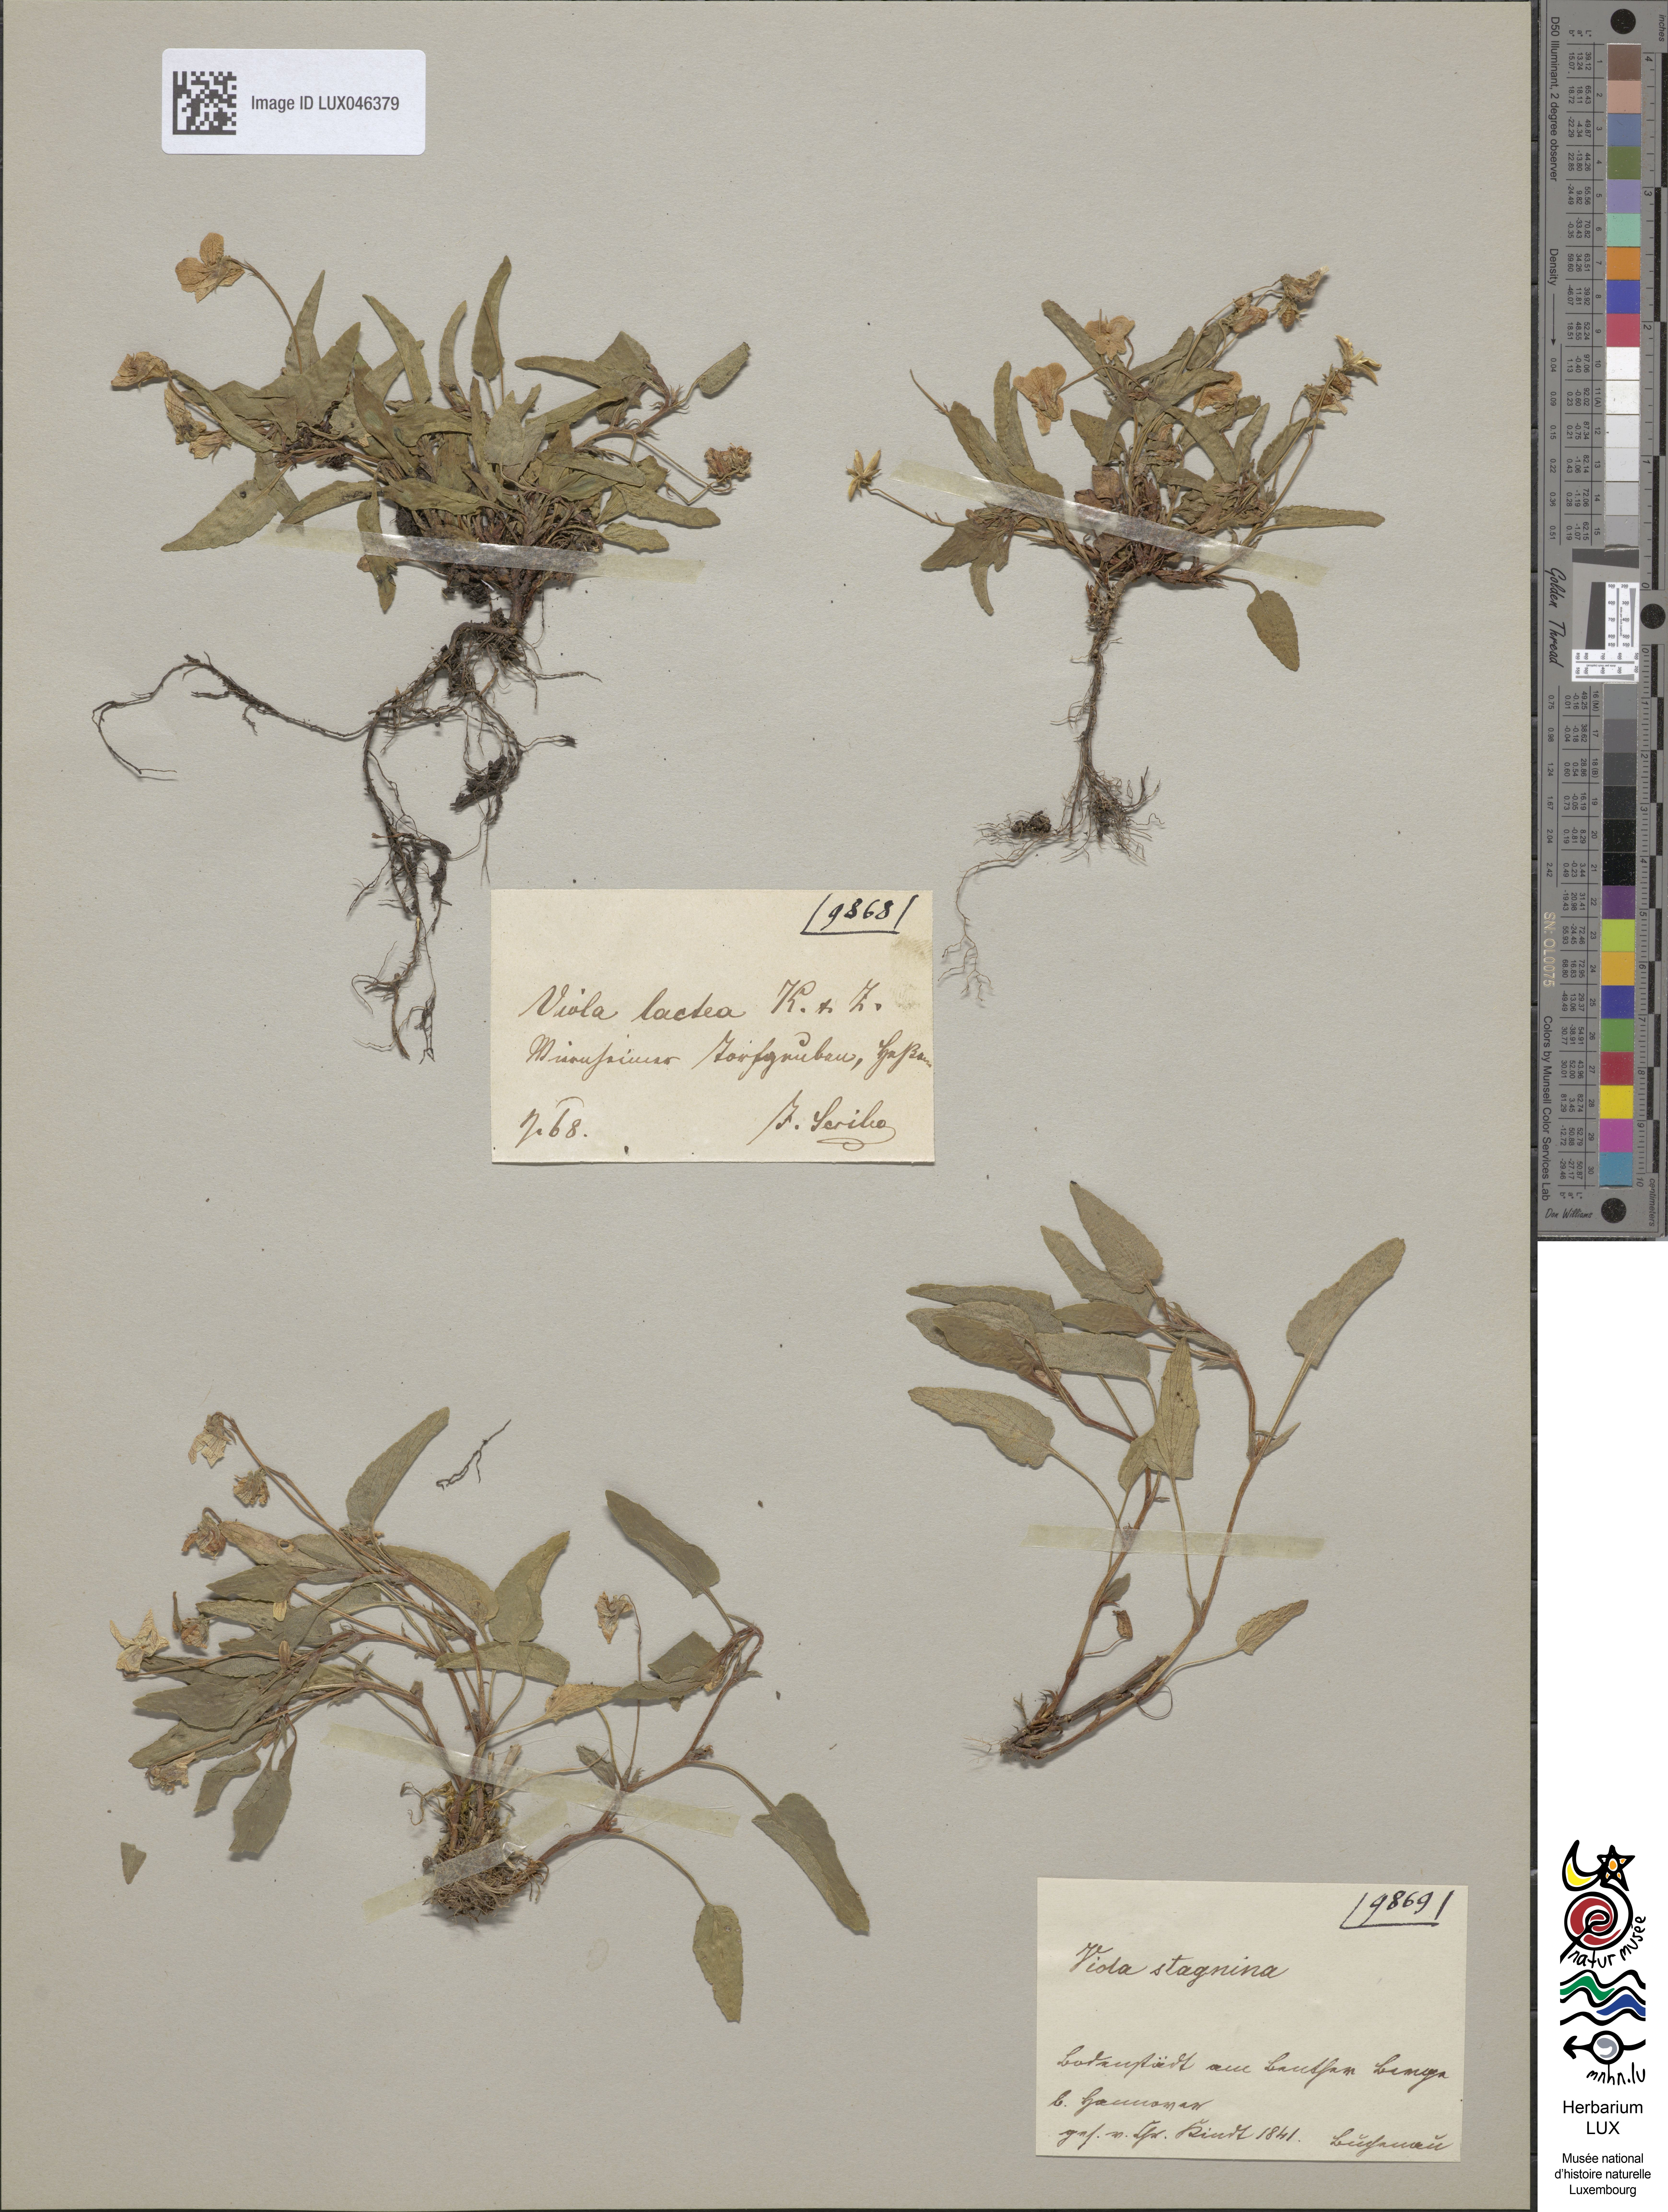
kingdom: Plantae
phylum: Tracheophyta
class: Magnoliopsida
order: Malpighiales
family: Violaceae
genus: Viola
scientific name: Viola stagnina
